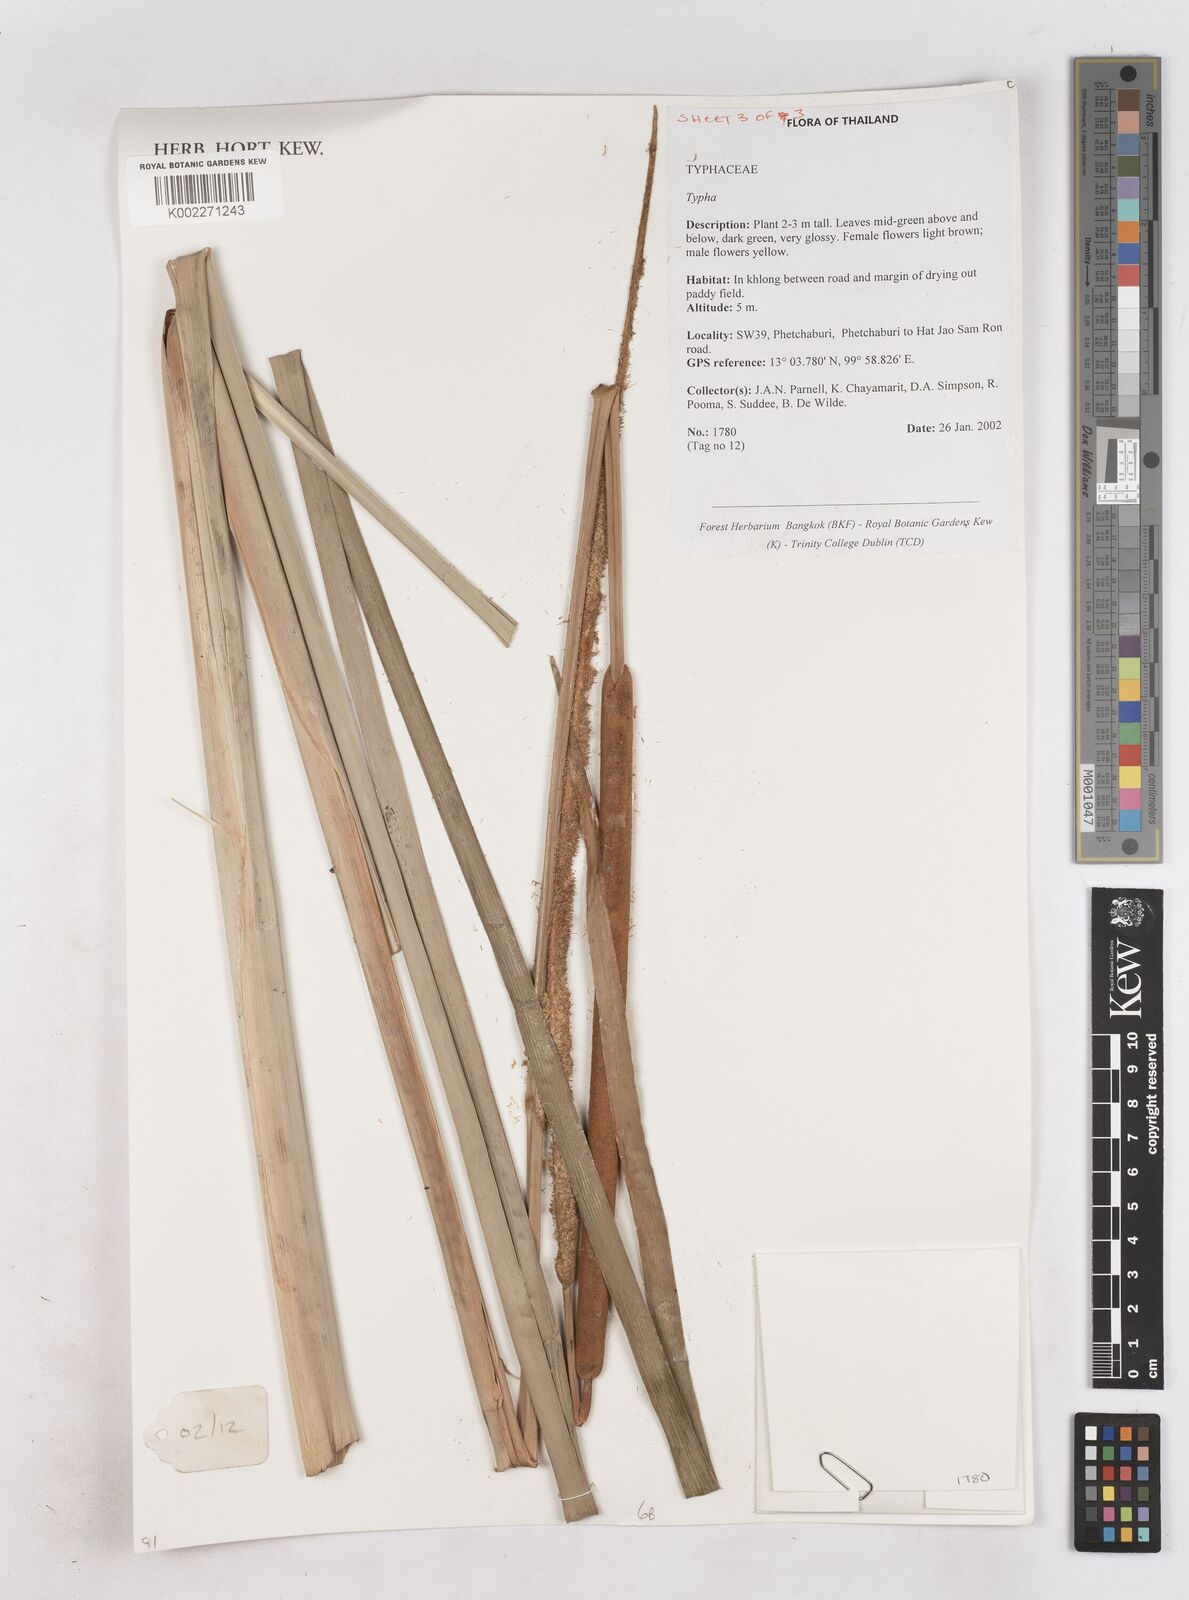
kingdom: Plantae
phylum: Tracheophyta
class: Liliopsida
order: Poales
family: Typhaceae
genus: Typha
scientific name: Typha
